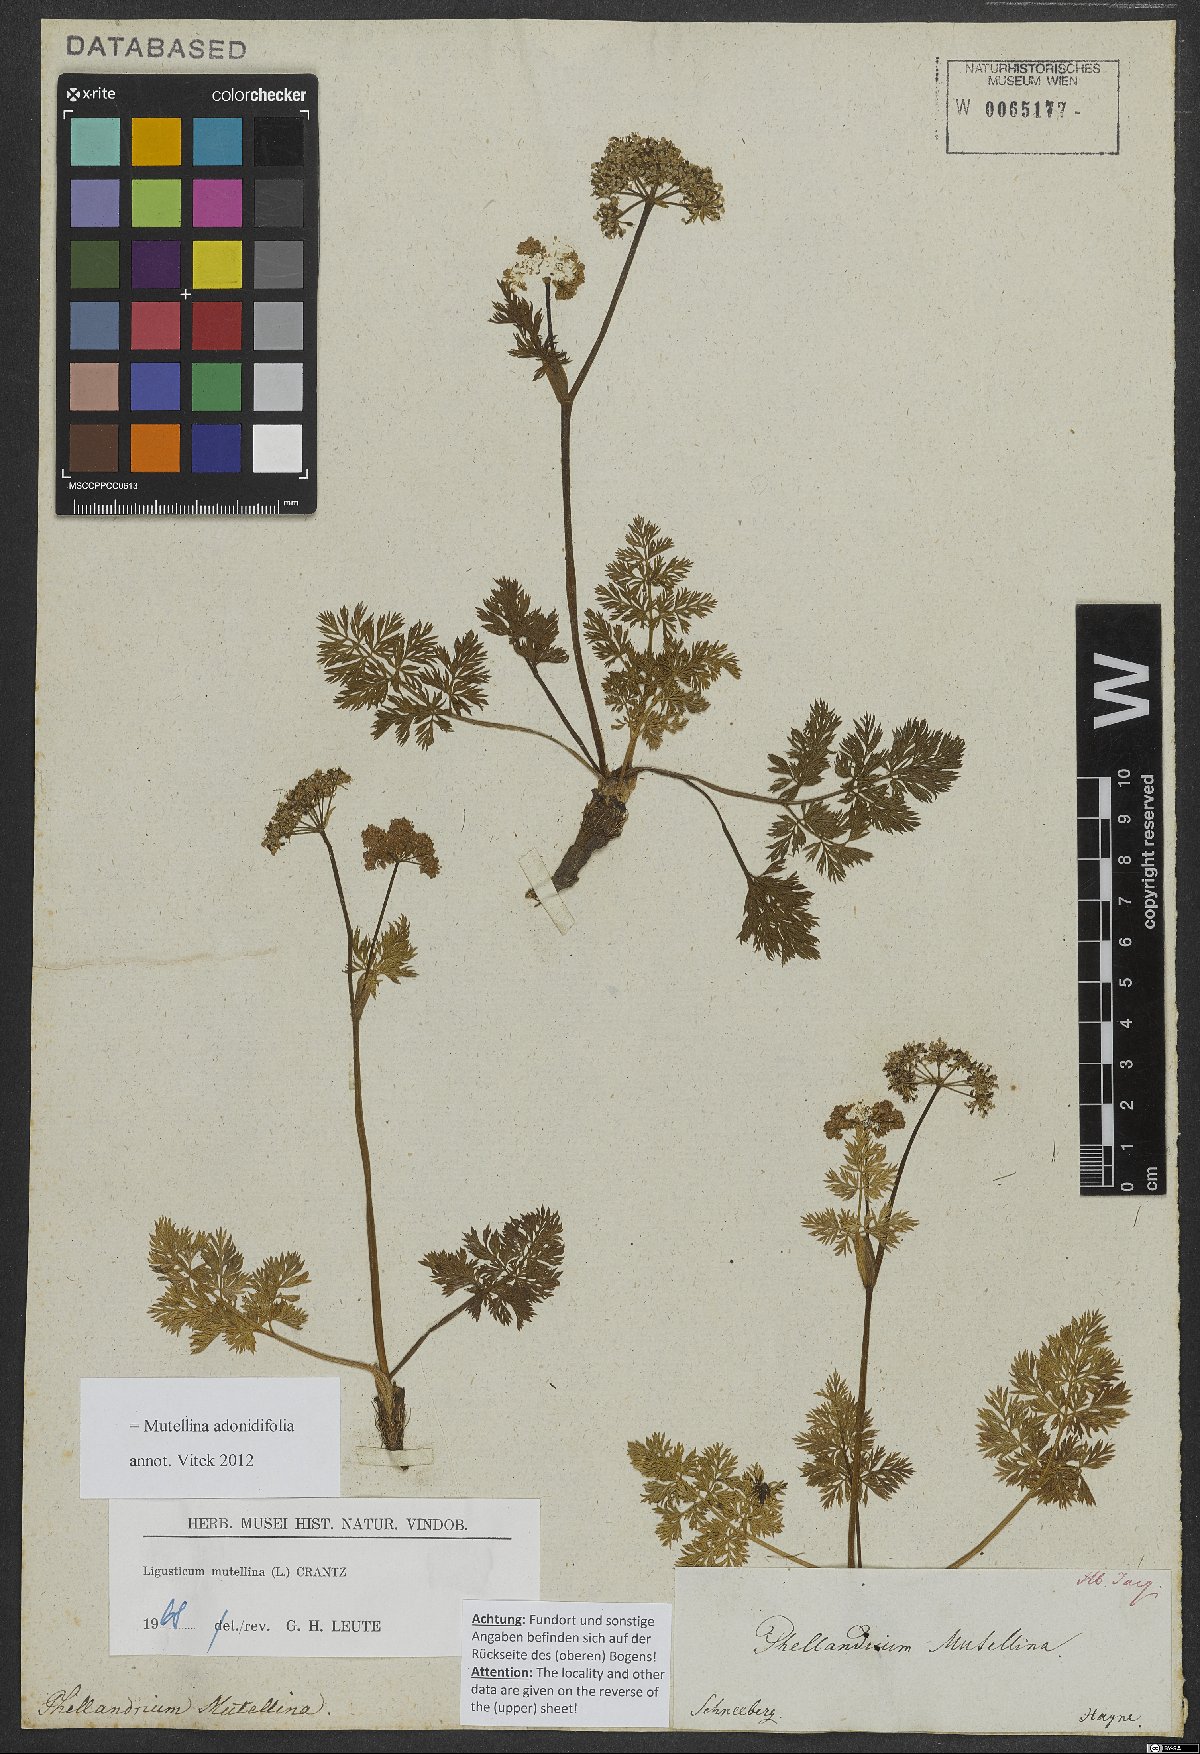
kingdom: Plantae
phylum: Tracheophyta
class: Magnoliopsida
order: Apiales
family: Apiaceae
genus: Mutellina
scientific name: Mutellina adonidifolia
